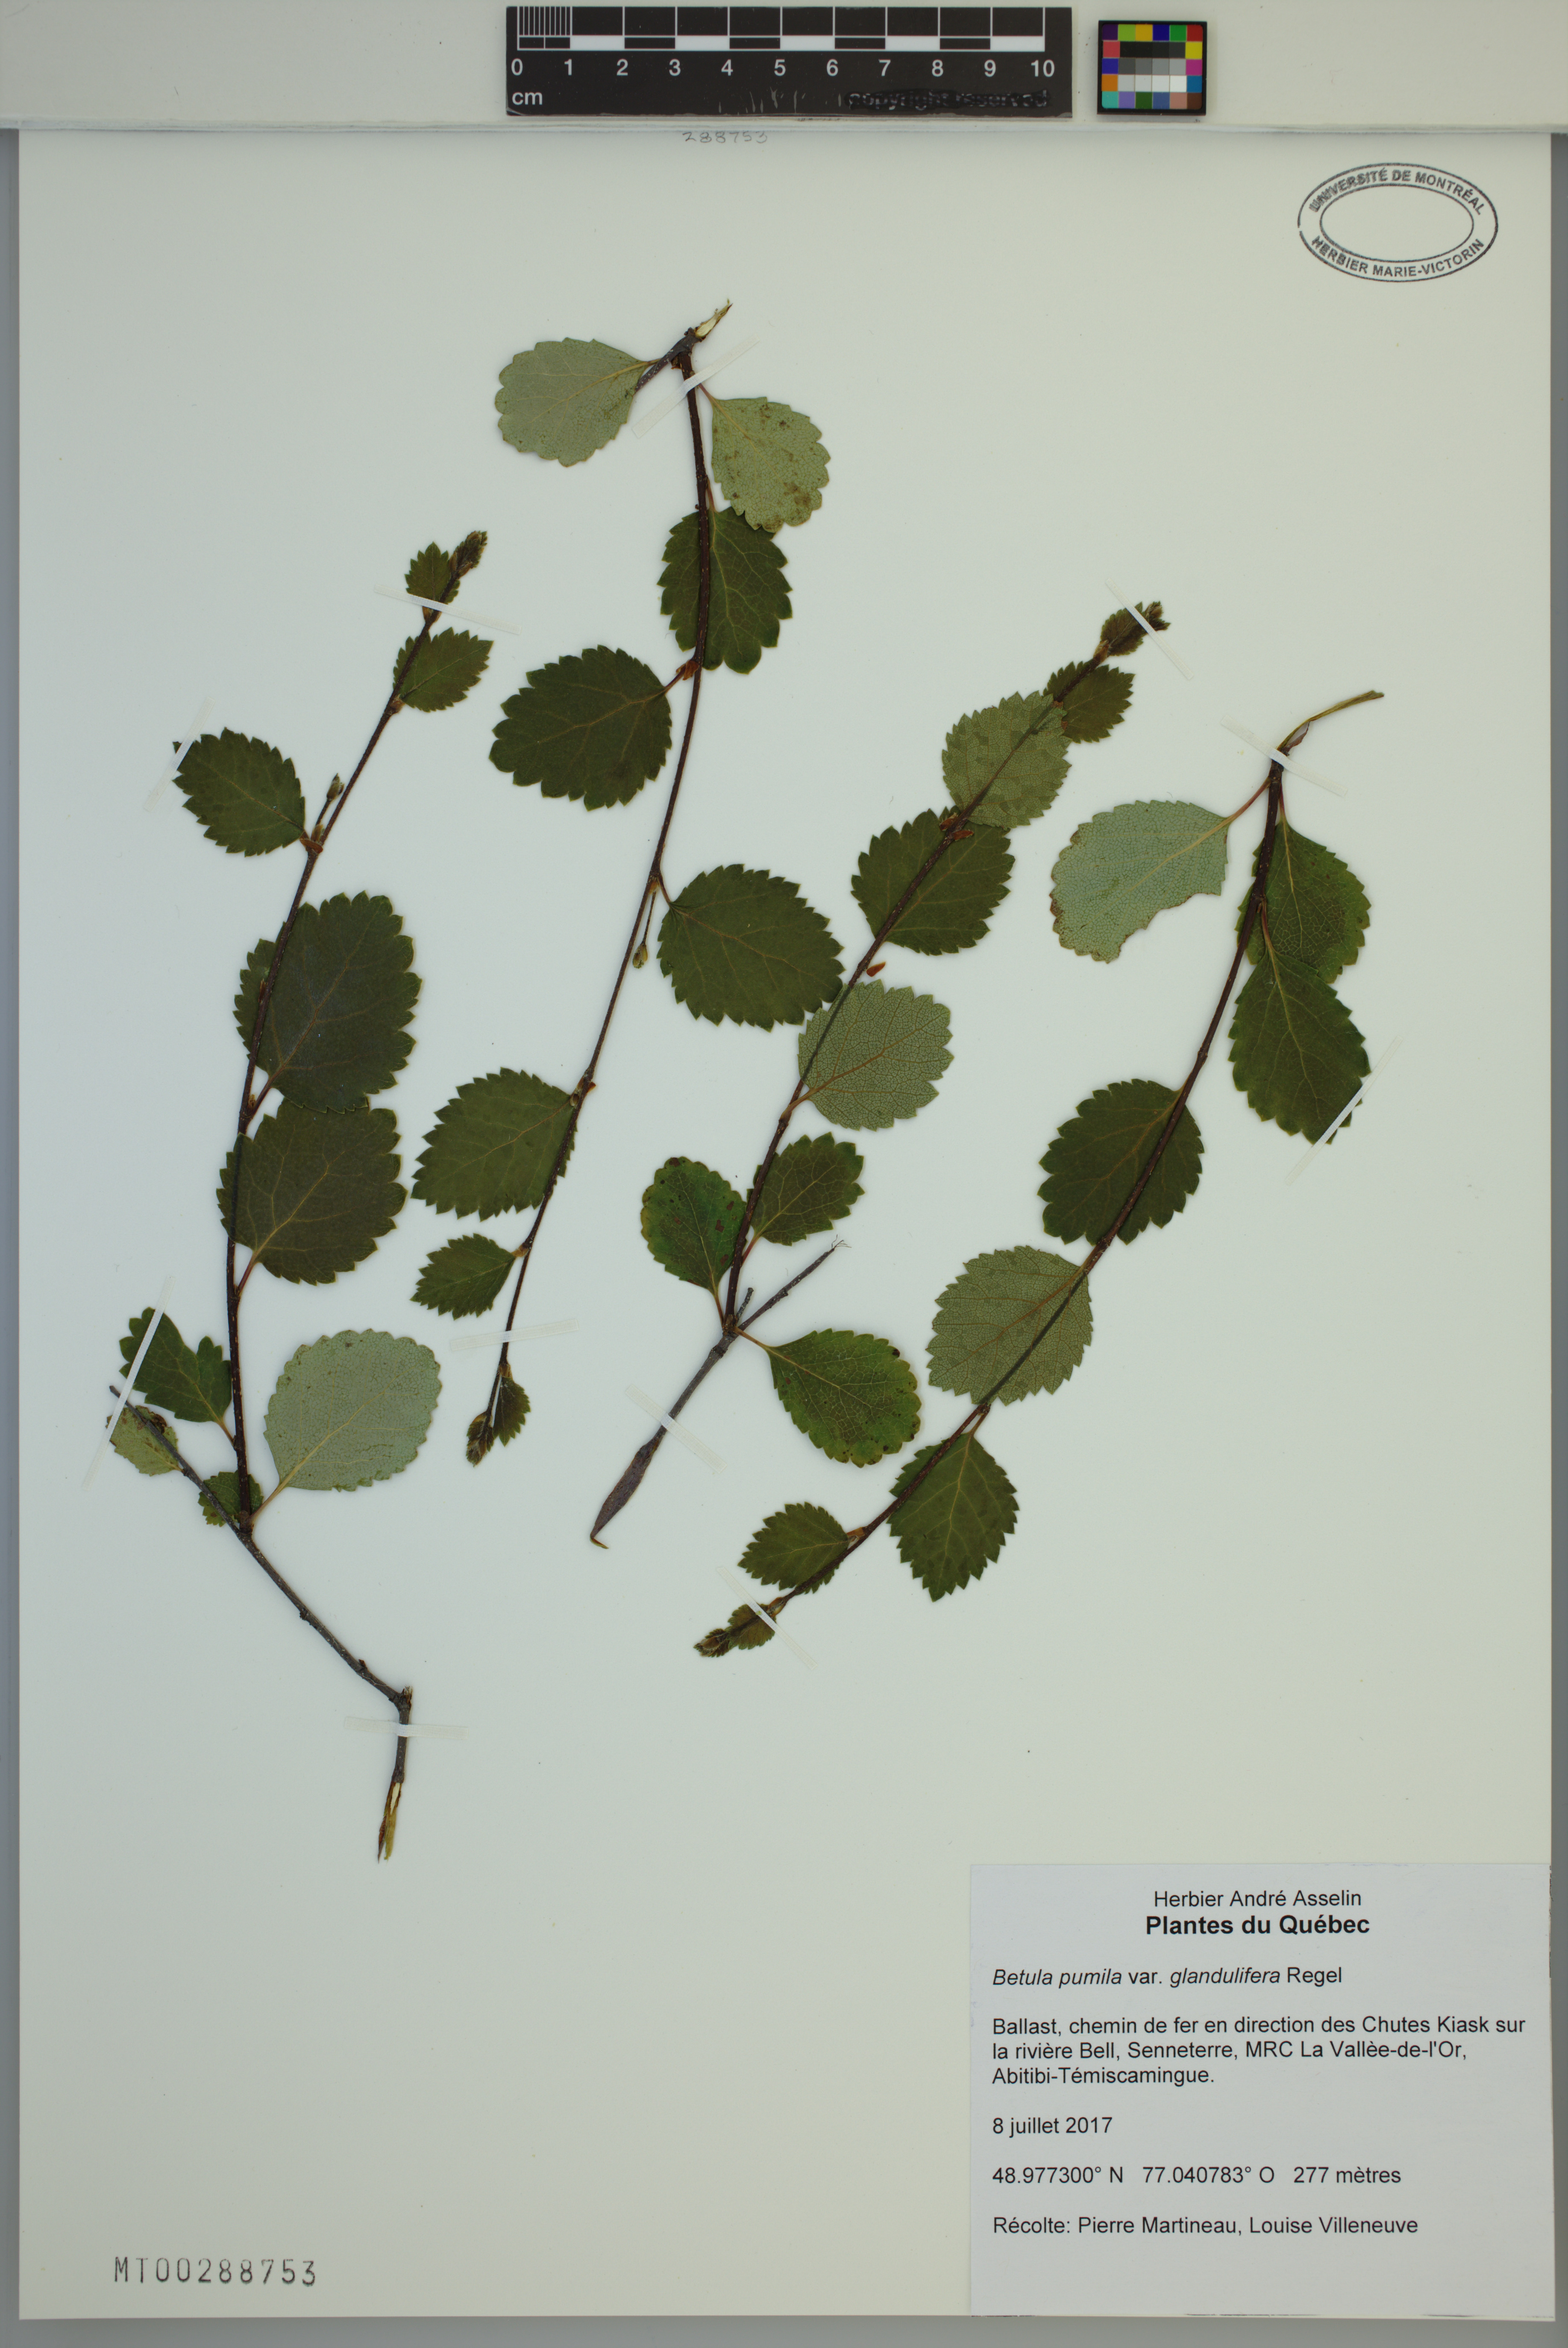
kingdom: Plantae
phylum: Tracheophyta
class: Magnoliopsida
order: Fagales
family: Betulaceae
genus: Betula
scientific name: Betula pumila
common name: Bog birch
